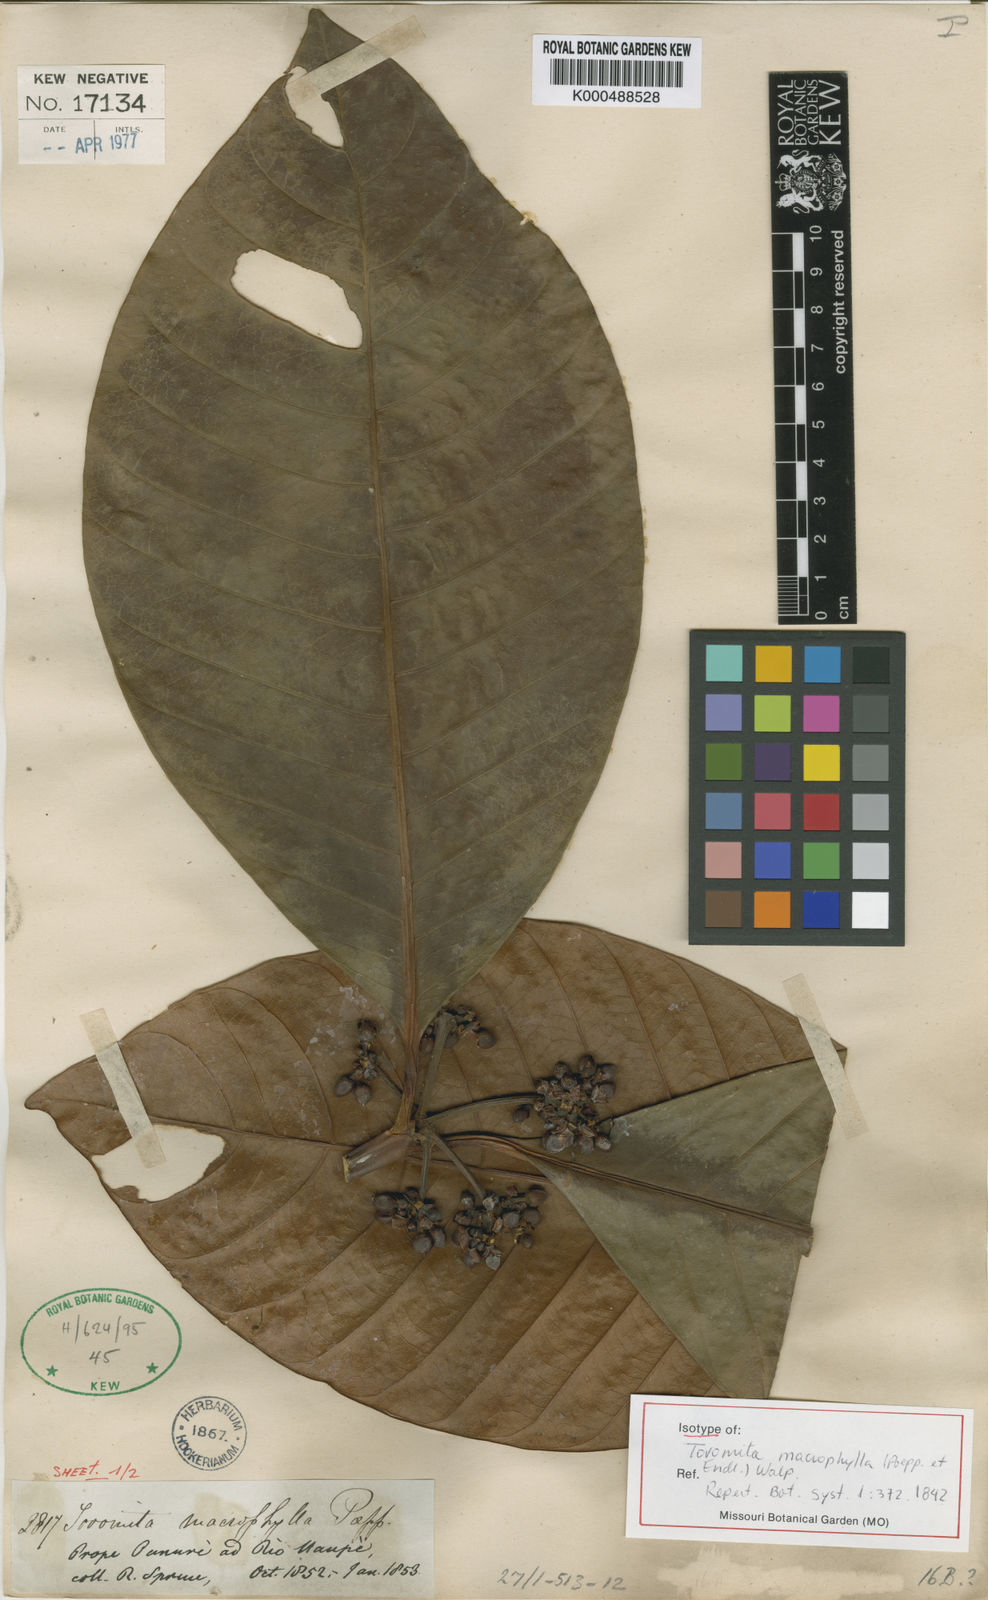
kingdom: Plantae
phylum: Tracheophyta
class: Magnoliopsida
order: Malpighiales
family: Clusiaceae
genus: Tovomita
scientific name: Tovomita macrophylla
